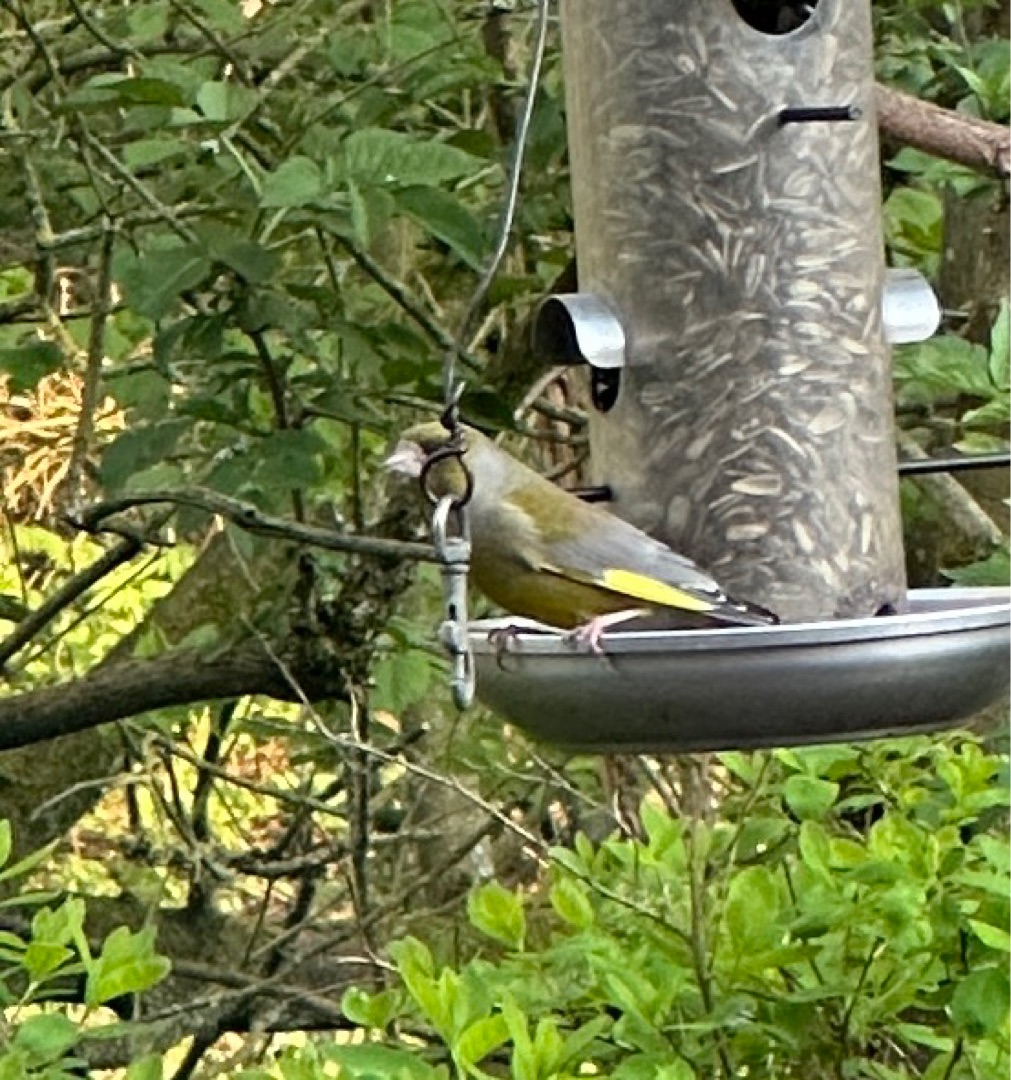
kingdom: Plantae
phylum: Tracheophyta
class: Liliopsida
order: Poales
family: Poaceae
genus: Chloris
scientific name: Chloris chloris
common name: Grønirisk
